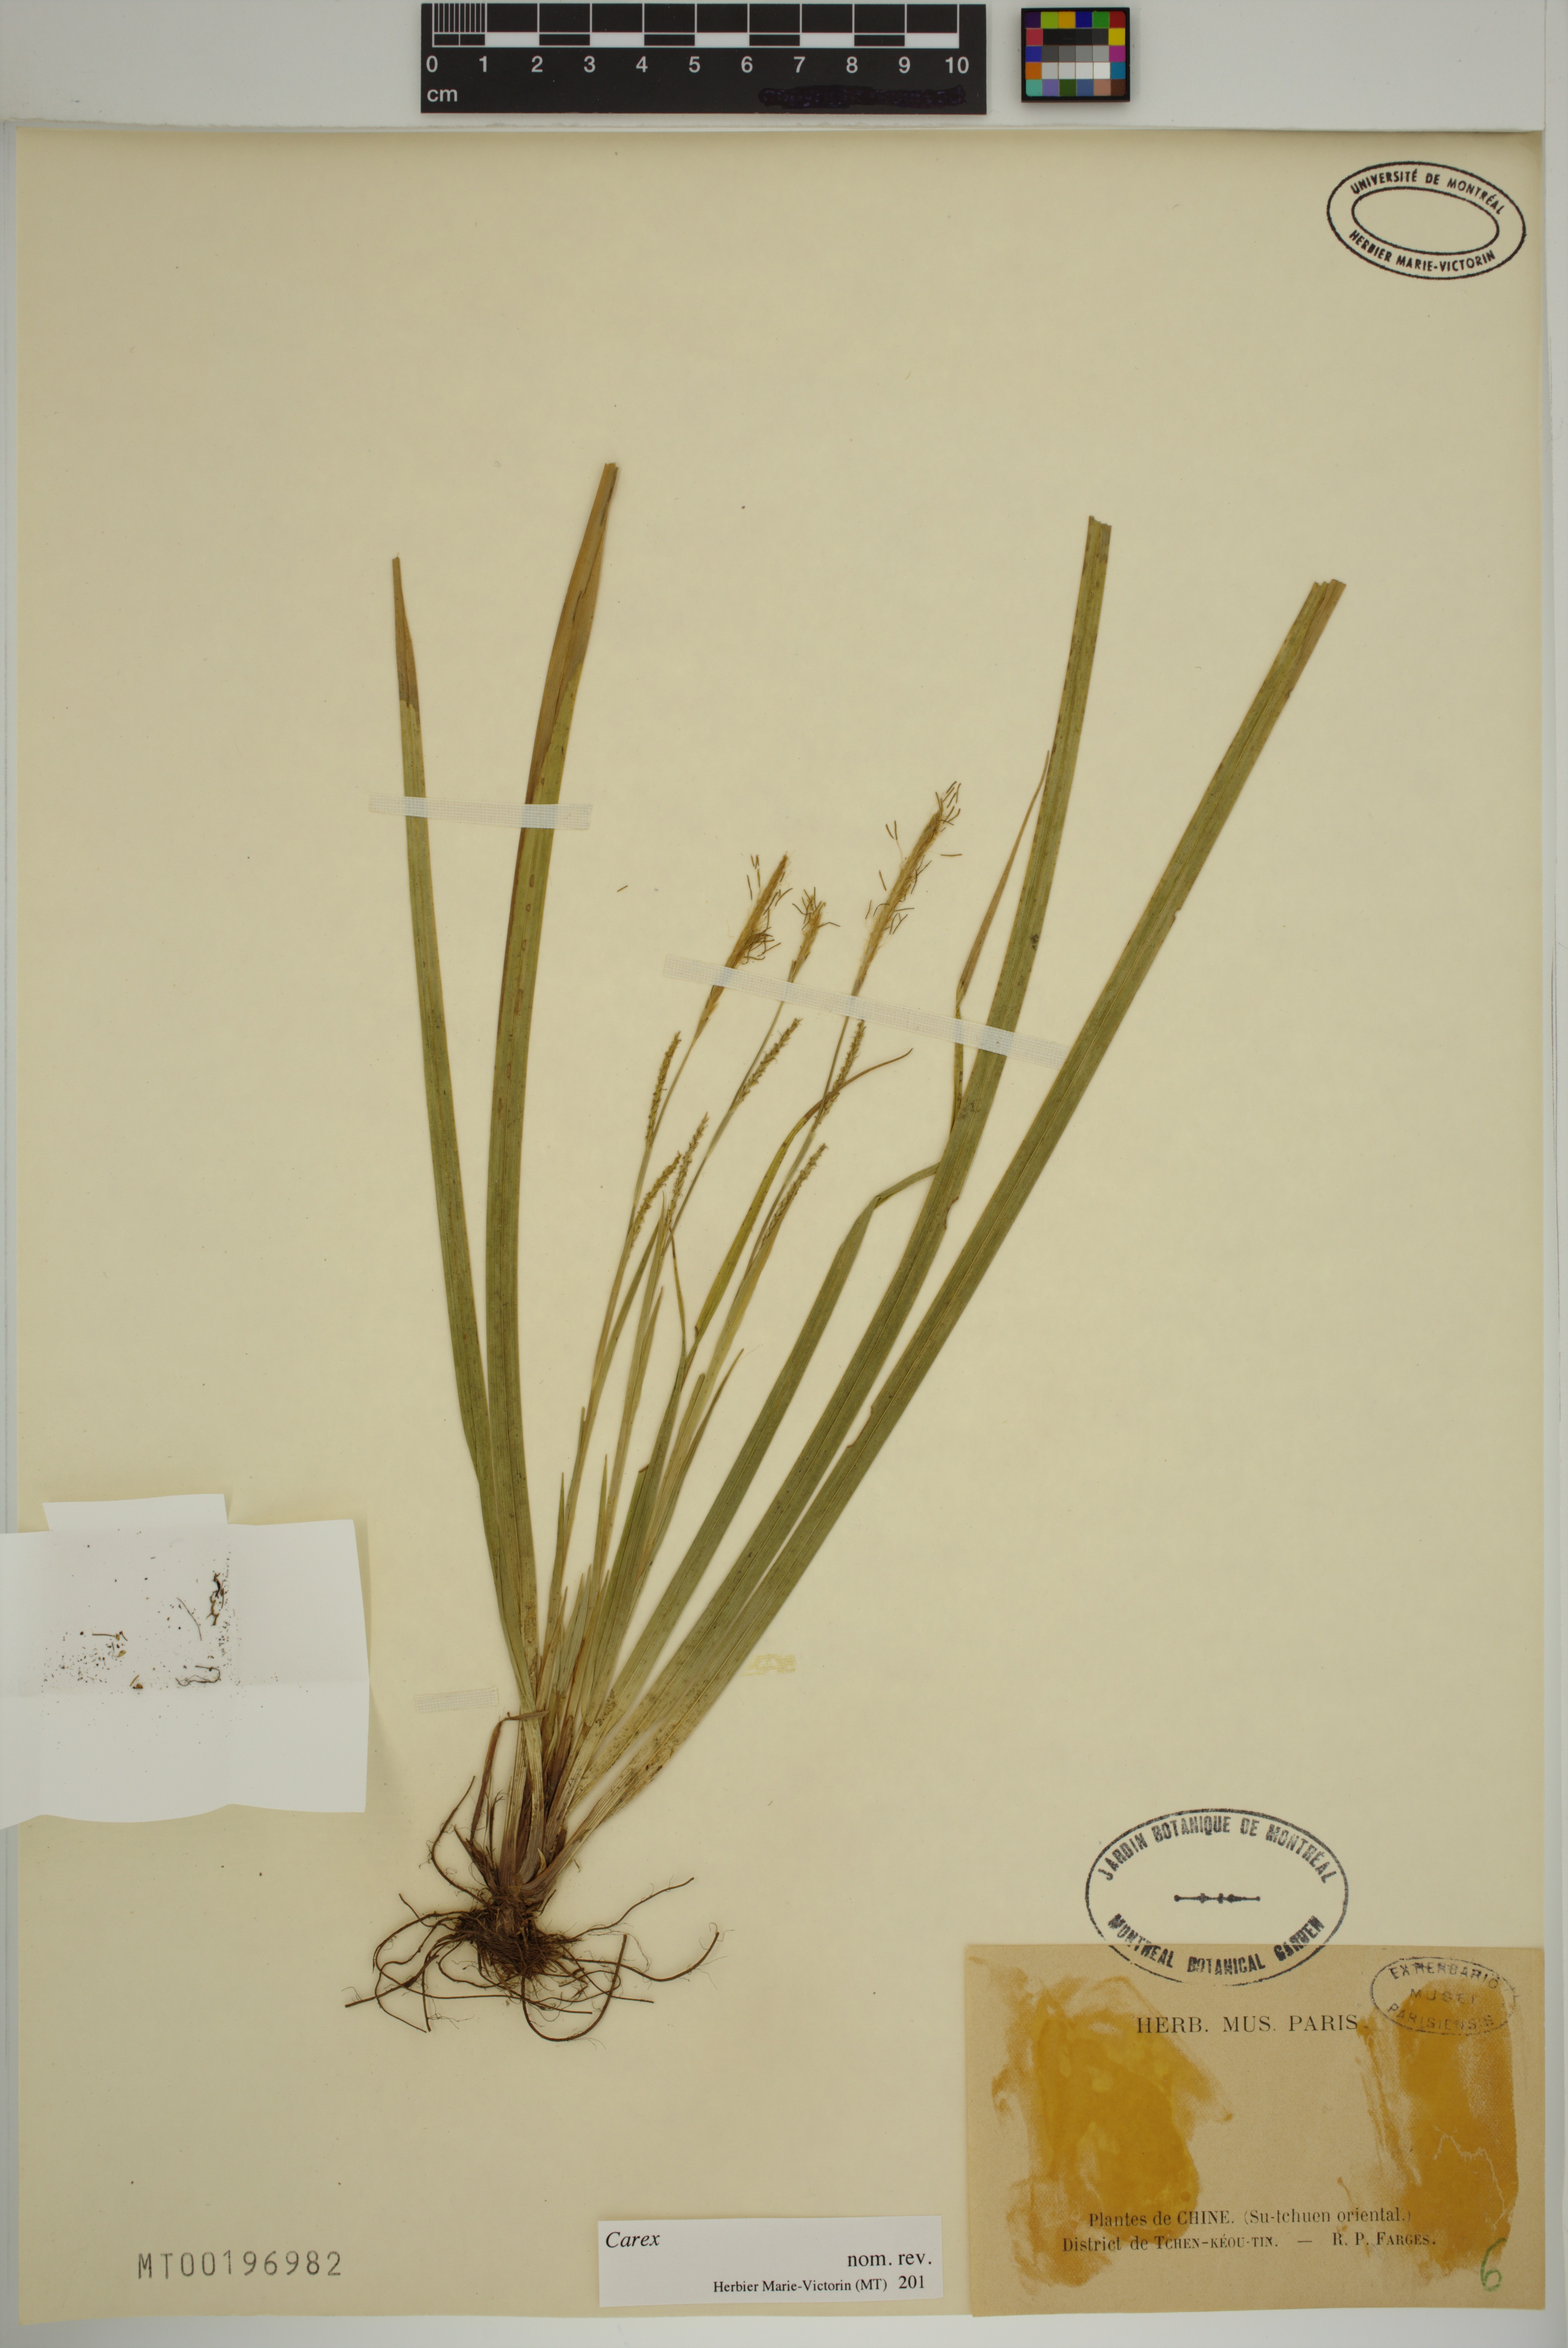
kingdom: Plantae
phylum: Tracheophyta
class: Liliopsida
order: Poales
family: Cyperaceae
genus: Carex
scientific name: Carex
